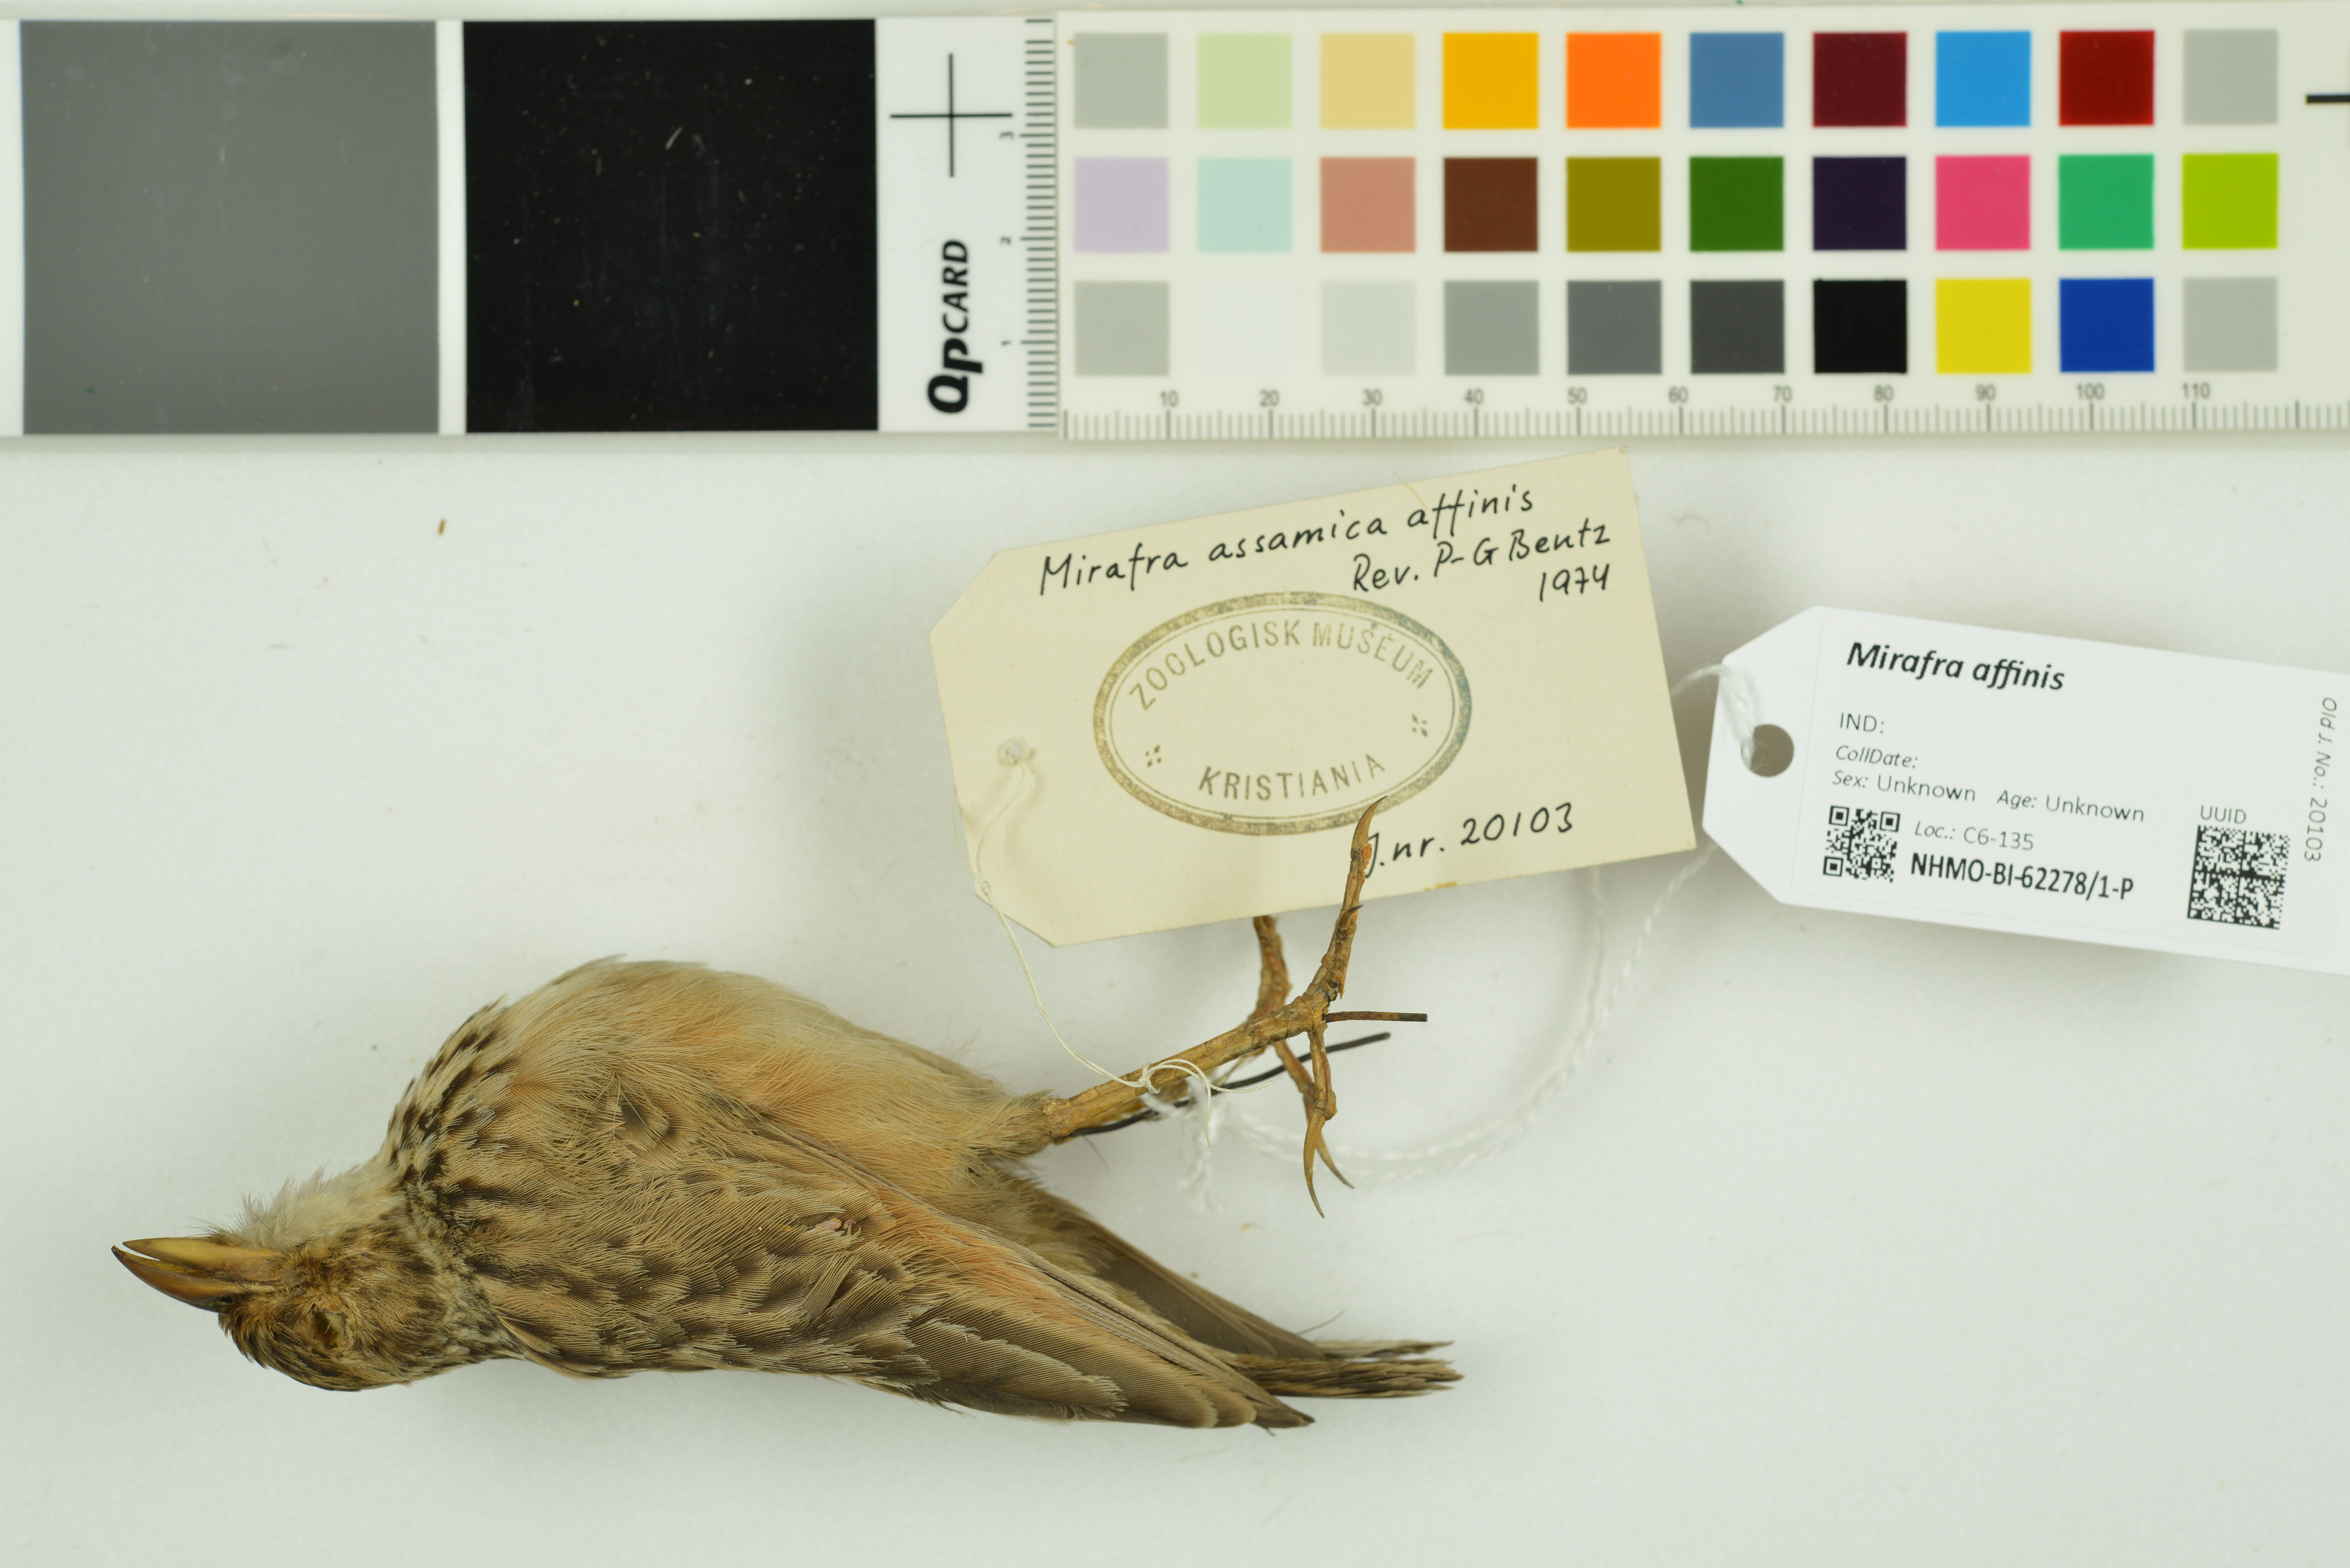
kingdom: Animalia
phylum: Chordata
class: Aves
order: Passeriformes
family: Alaudidae
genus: Mirafra
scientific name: Mirafra affinis
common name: Jerdon's bushlark
